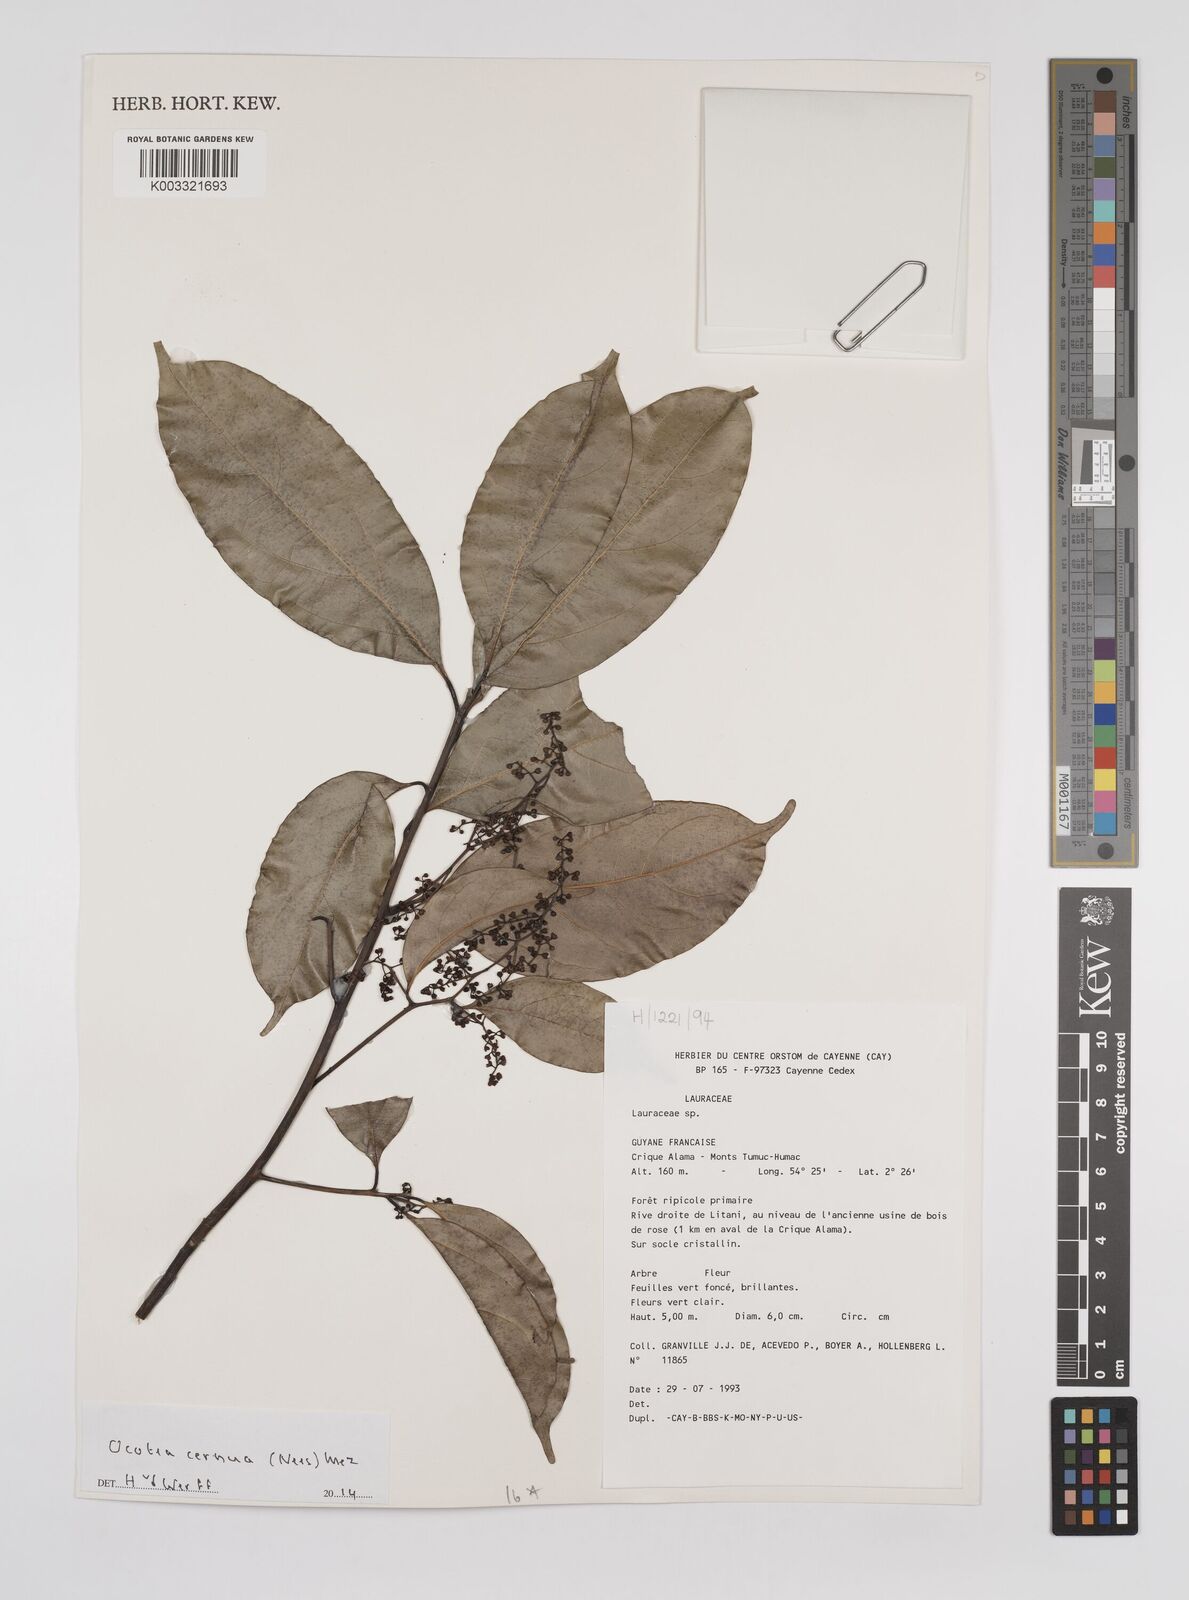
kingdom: Plantae
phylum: Tracheophyta
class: Magnoliopsida
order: Laurales
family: Lauraceae
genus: Ocotea
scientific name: Ocotea leptobotra
